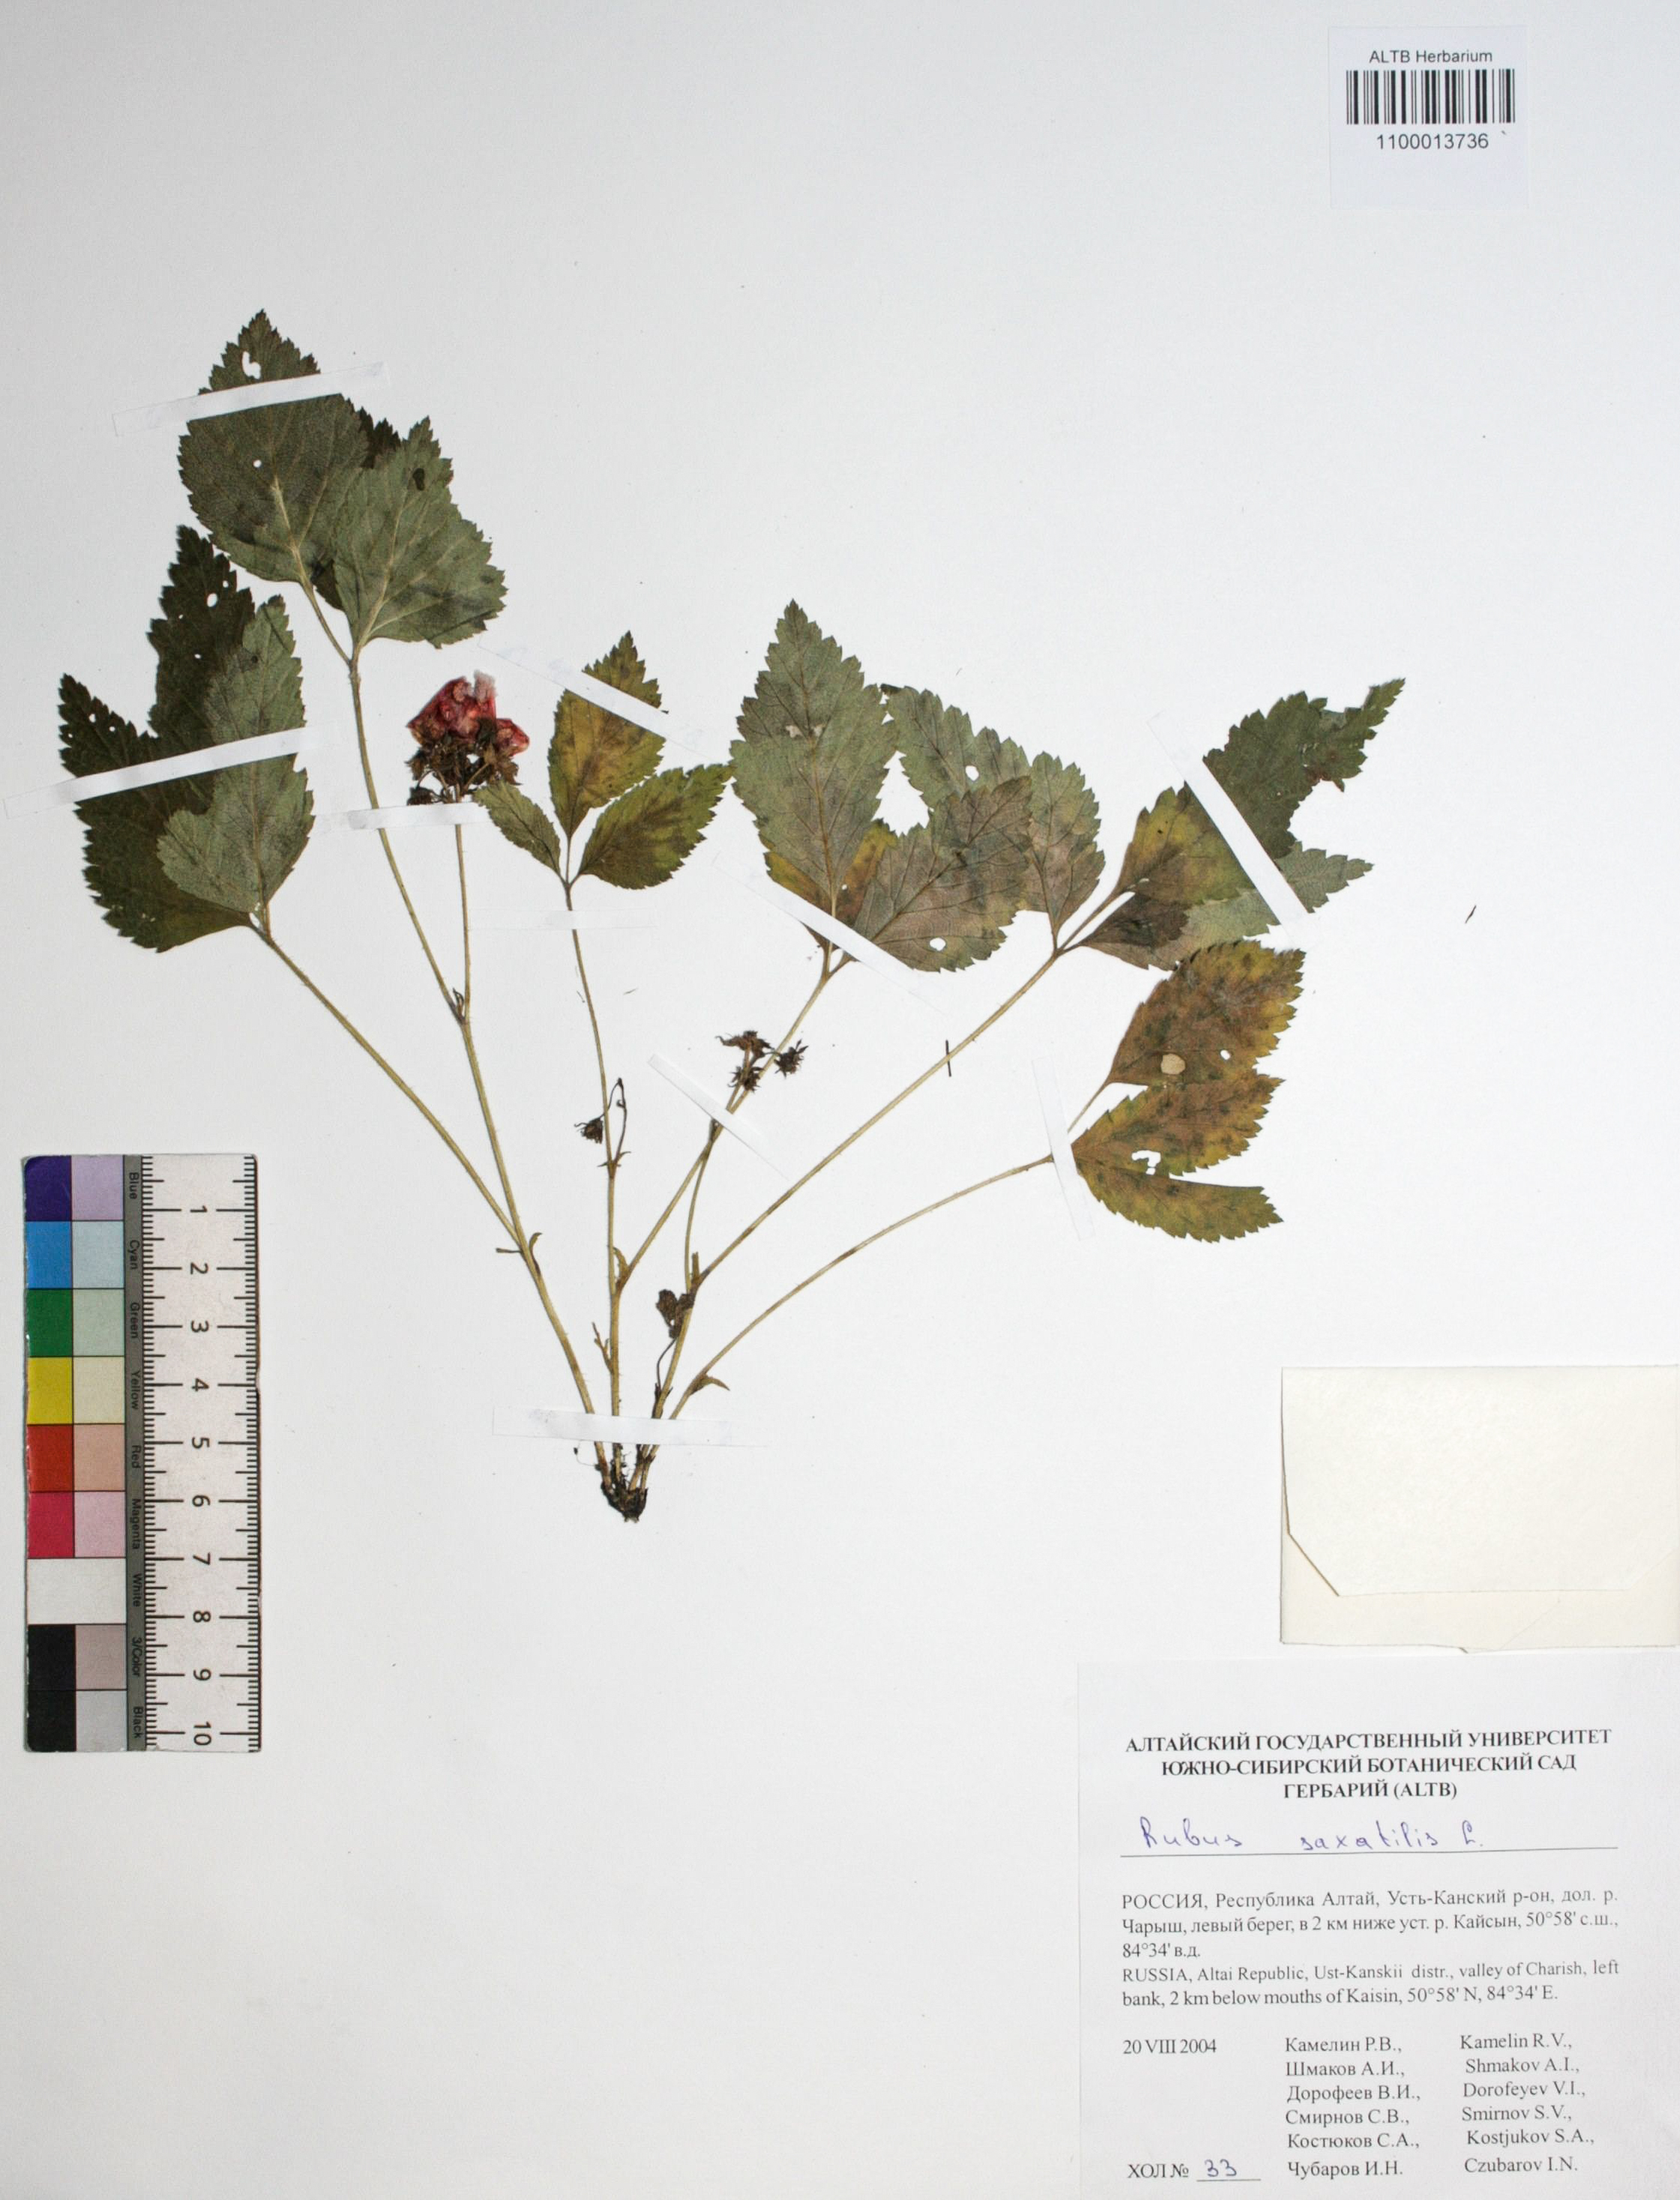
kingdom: Plantae
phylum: Tracheophyta
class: Magnoliopsida
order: Rosales
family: Rosaceae
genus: Rubus
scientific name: Rubus saxatilis
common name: Stone bramble
